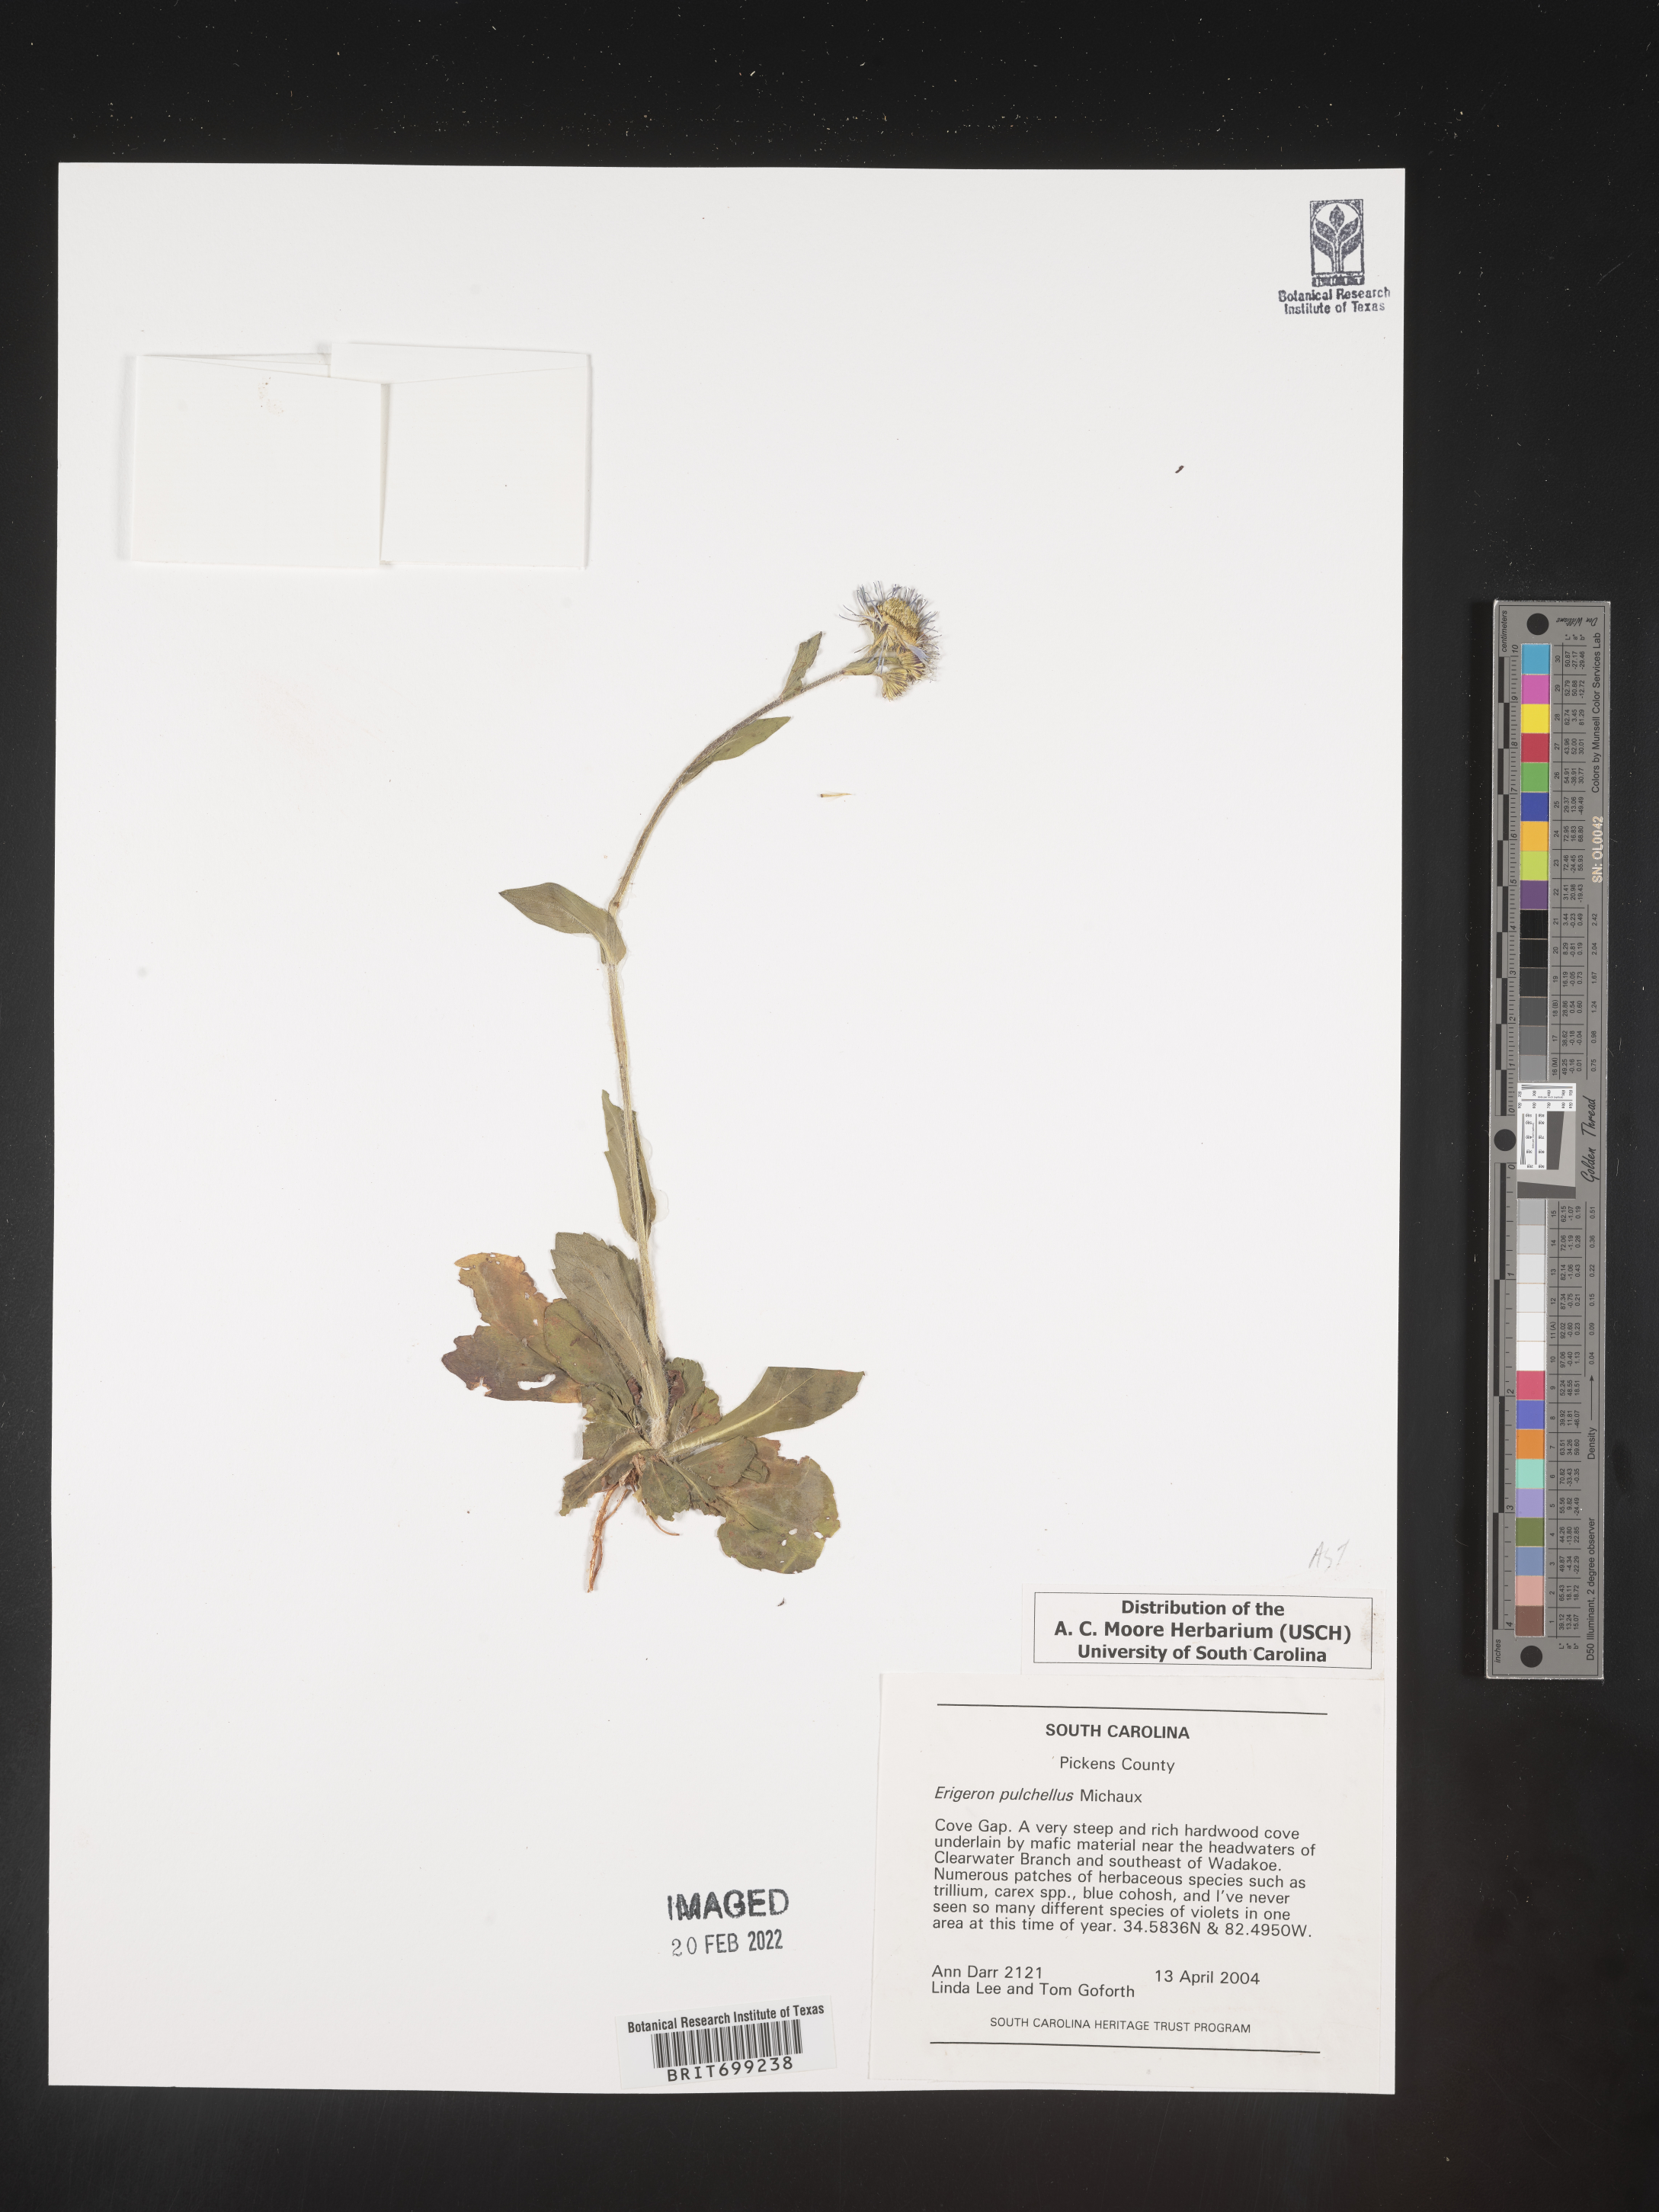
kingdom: Plantae
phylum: Tracheophyta
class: Magnoliopsida
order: Asterales
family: Asteraceae
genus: Erigeron
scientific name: Erigeron pulchellus
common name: Hairy fleabane
